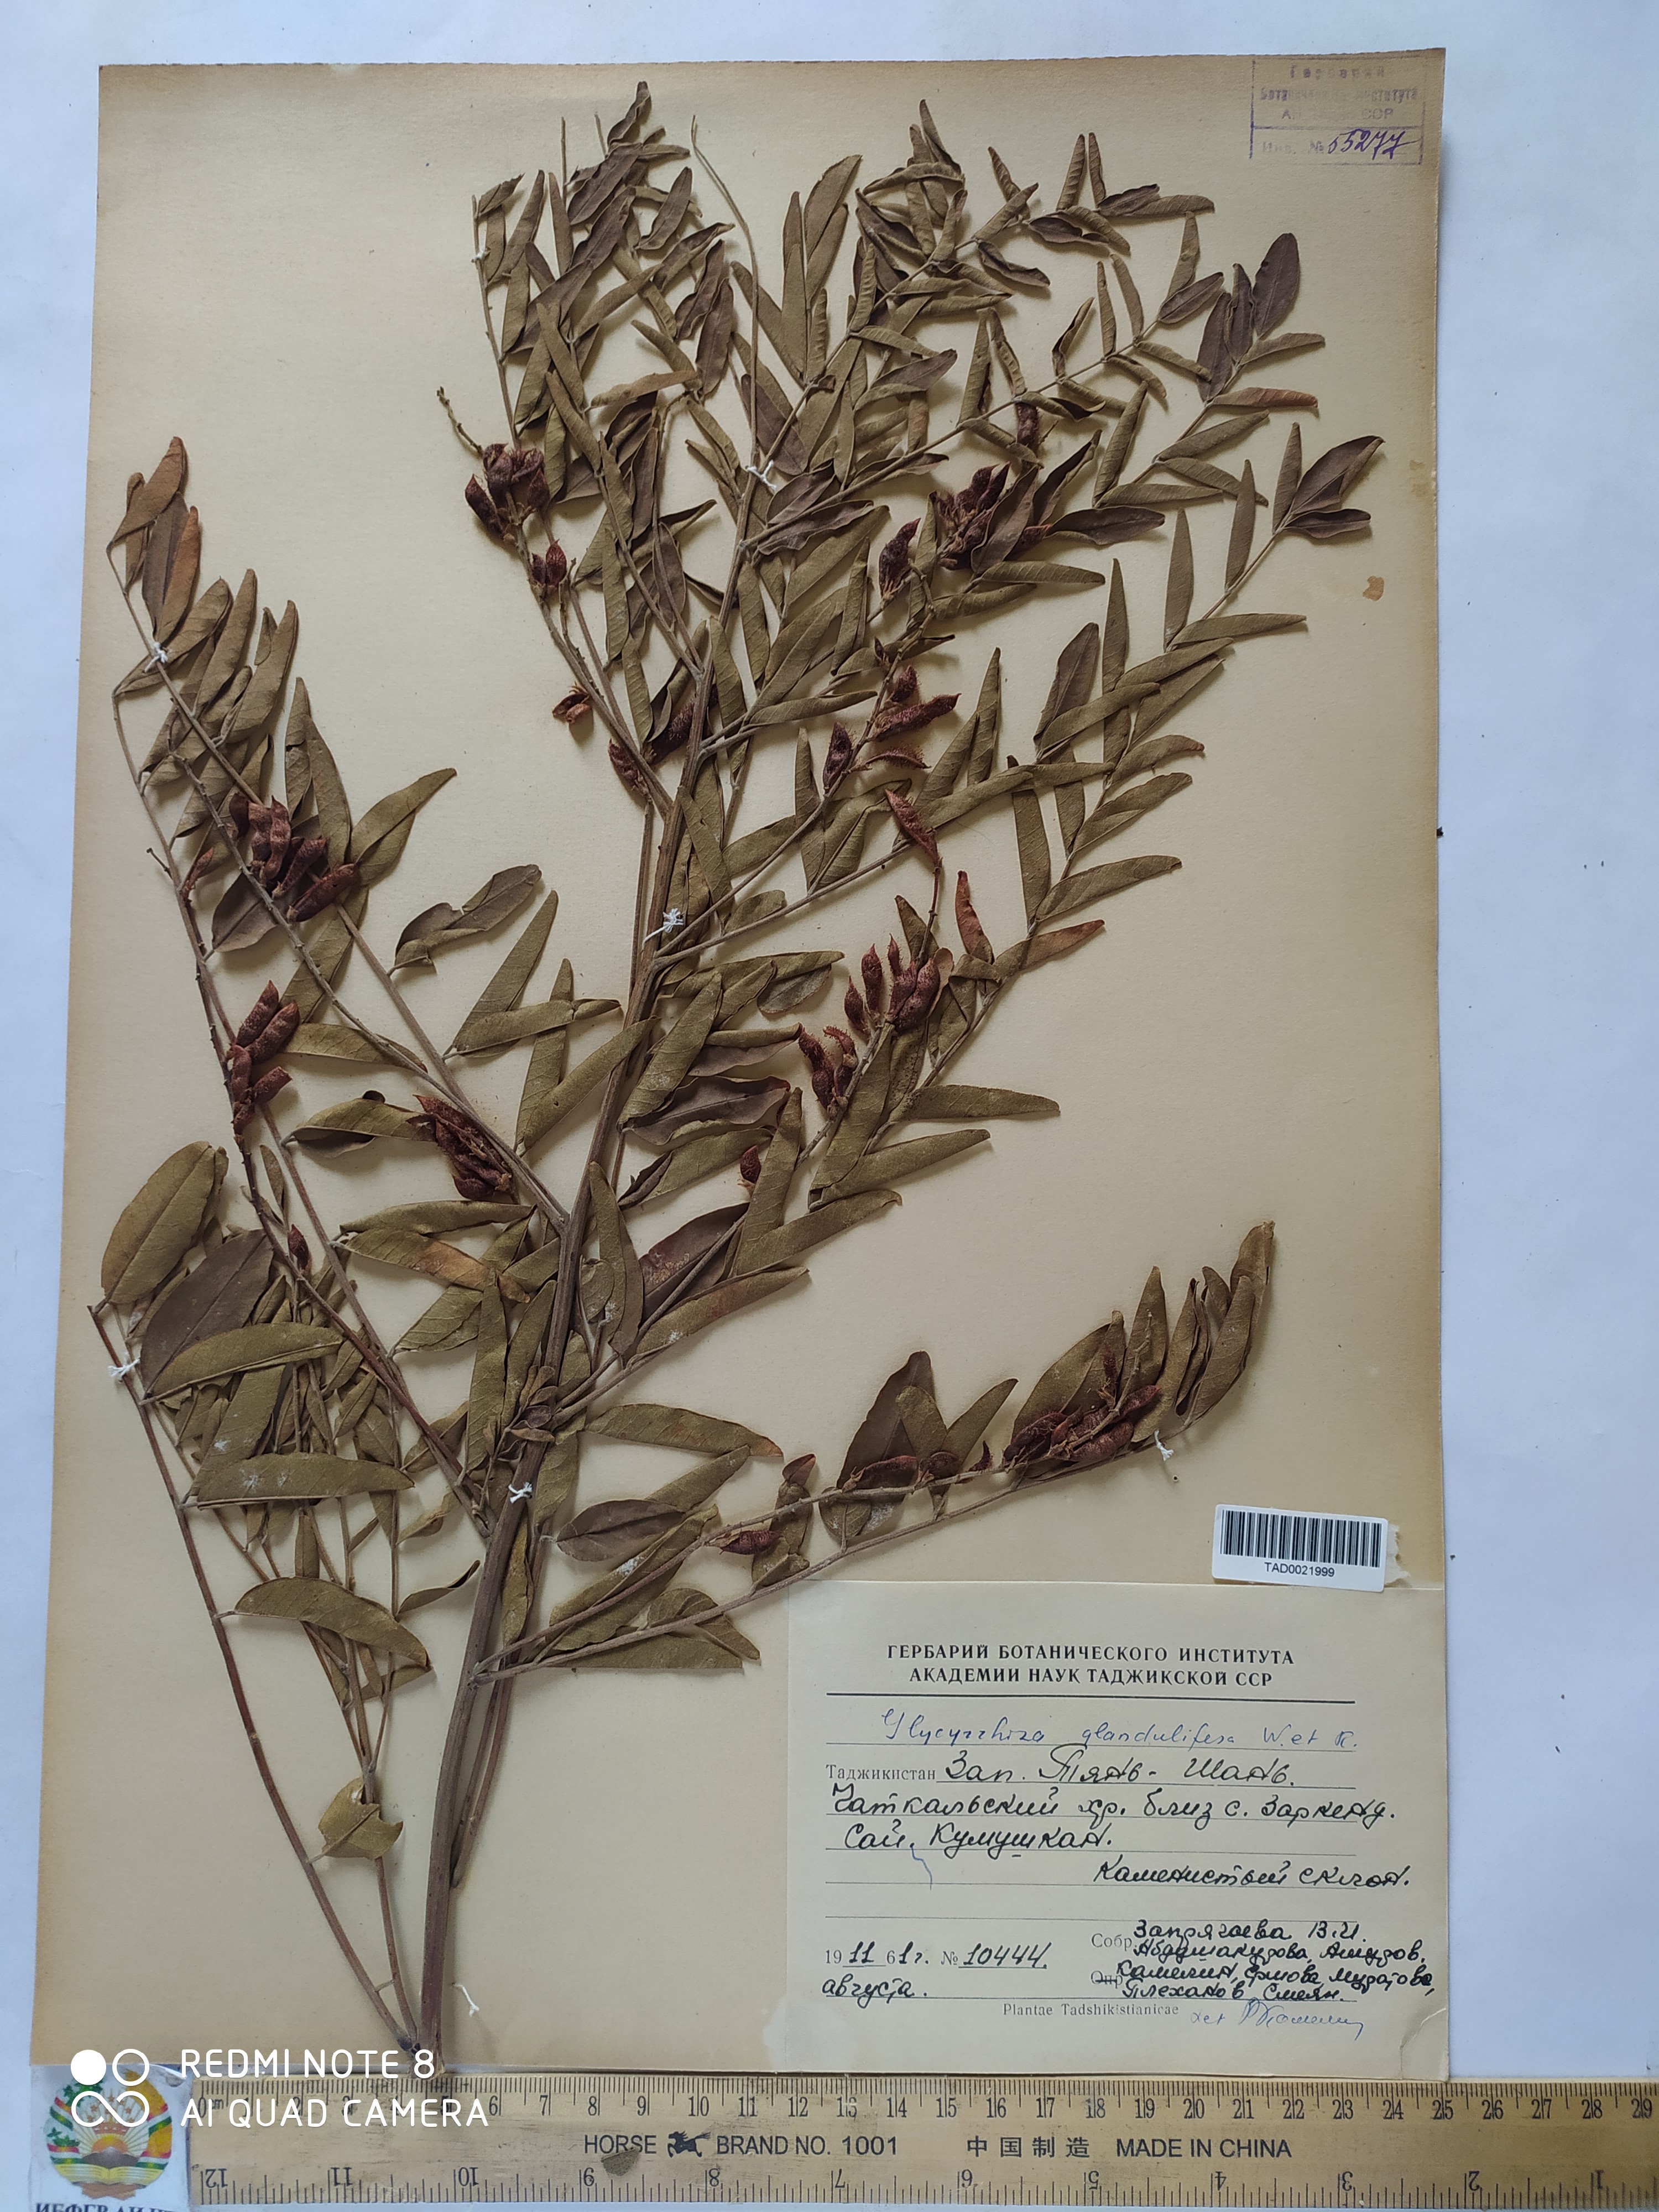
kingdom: Plantae
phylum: Tracheophyta
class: Magnoliopsida
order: Fabales
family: Fabaceae
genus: Glycyrrhiza
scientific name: Glycyrrhiza glabra
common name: Liquorice
